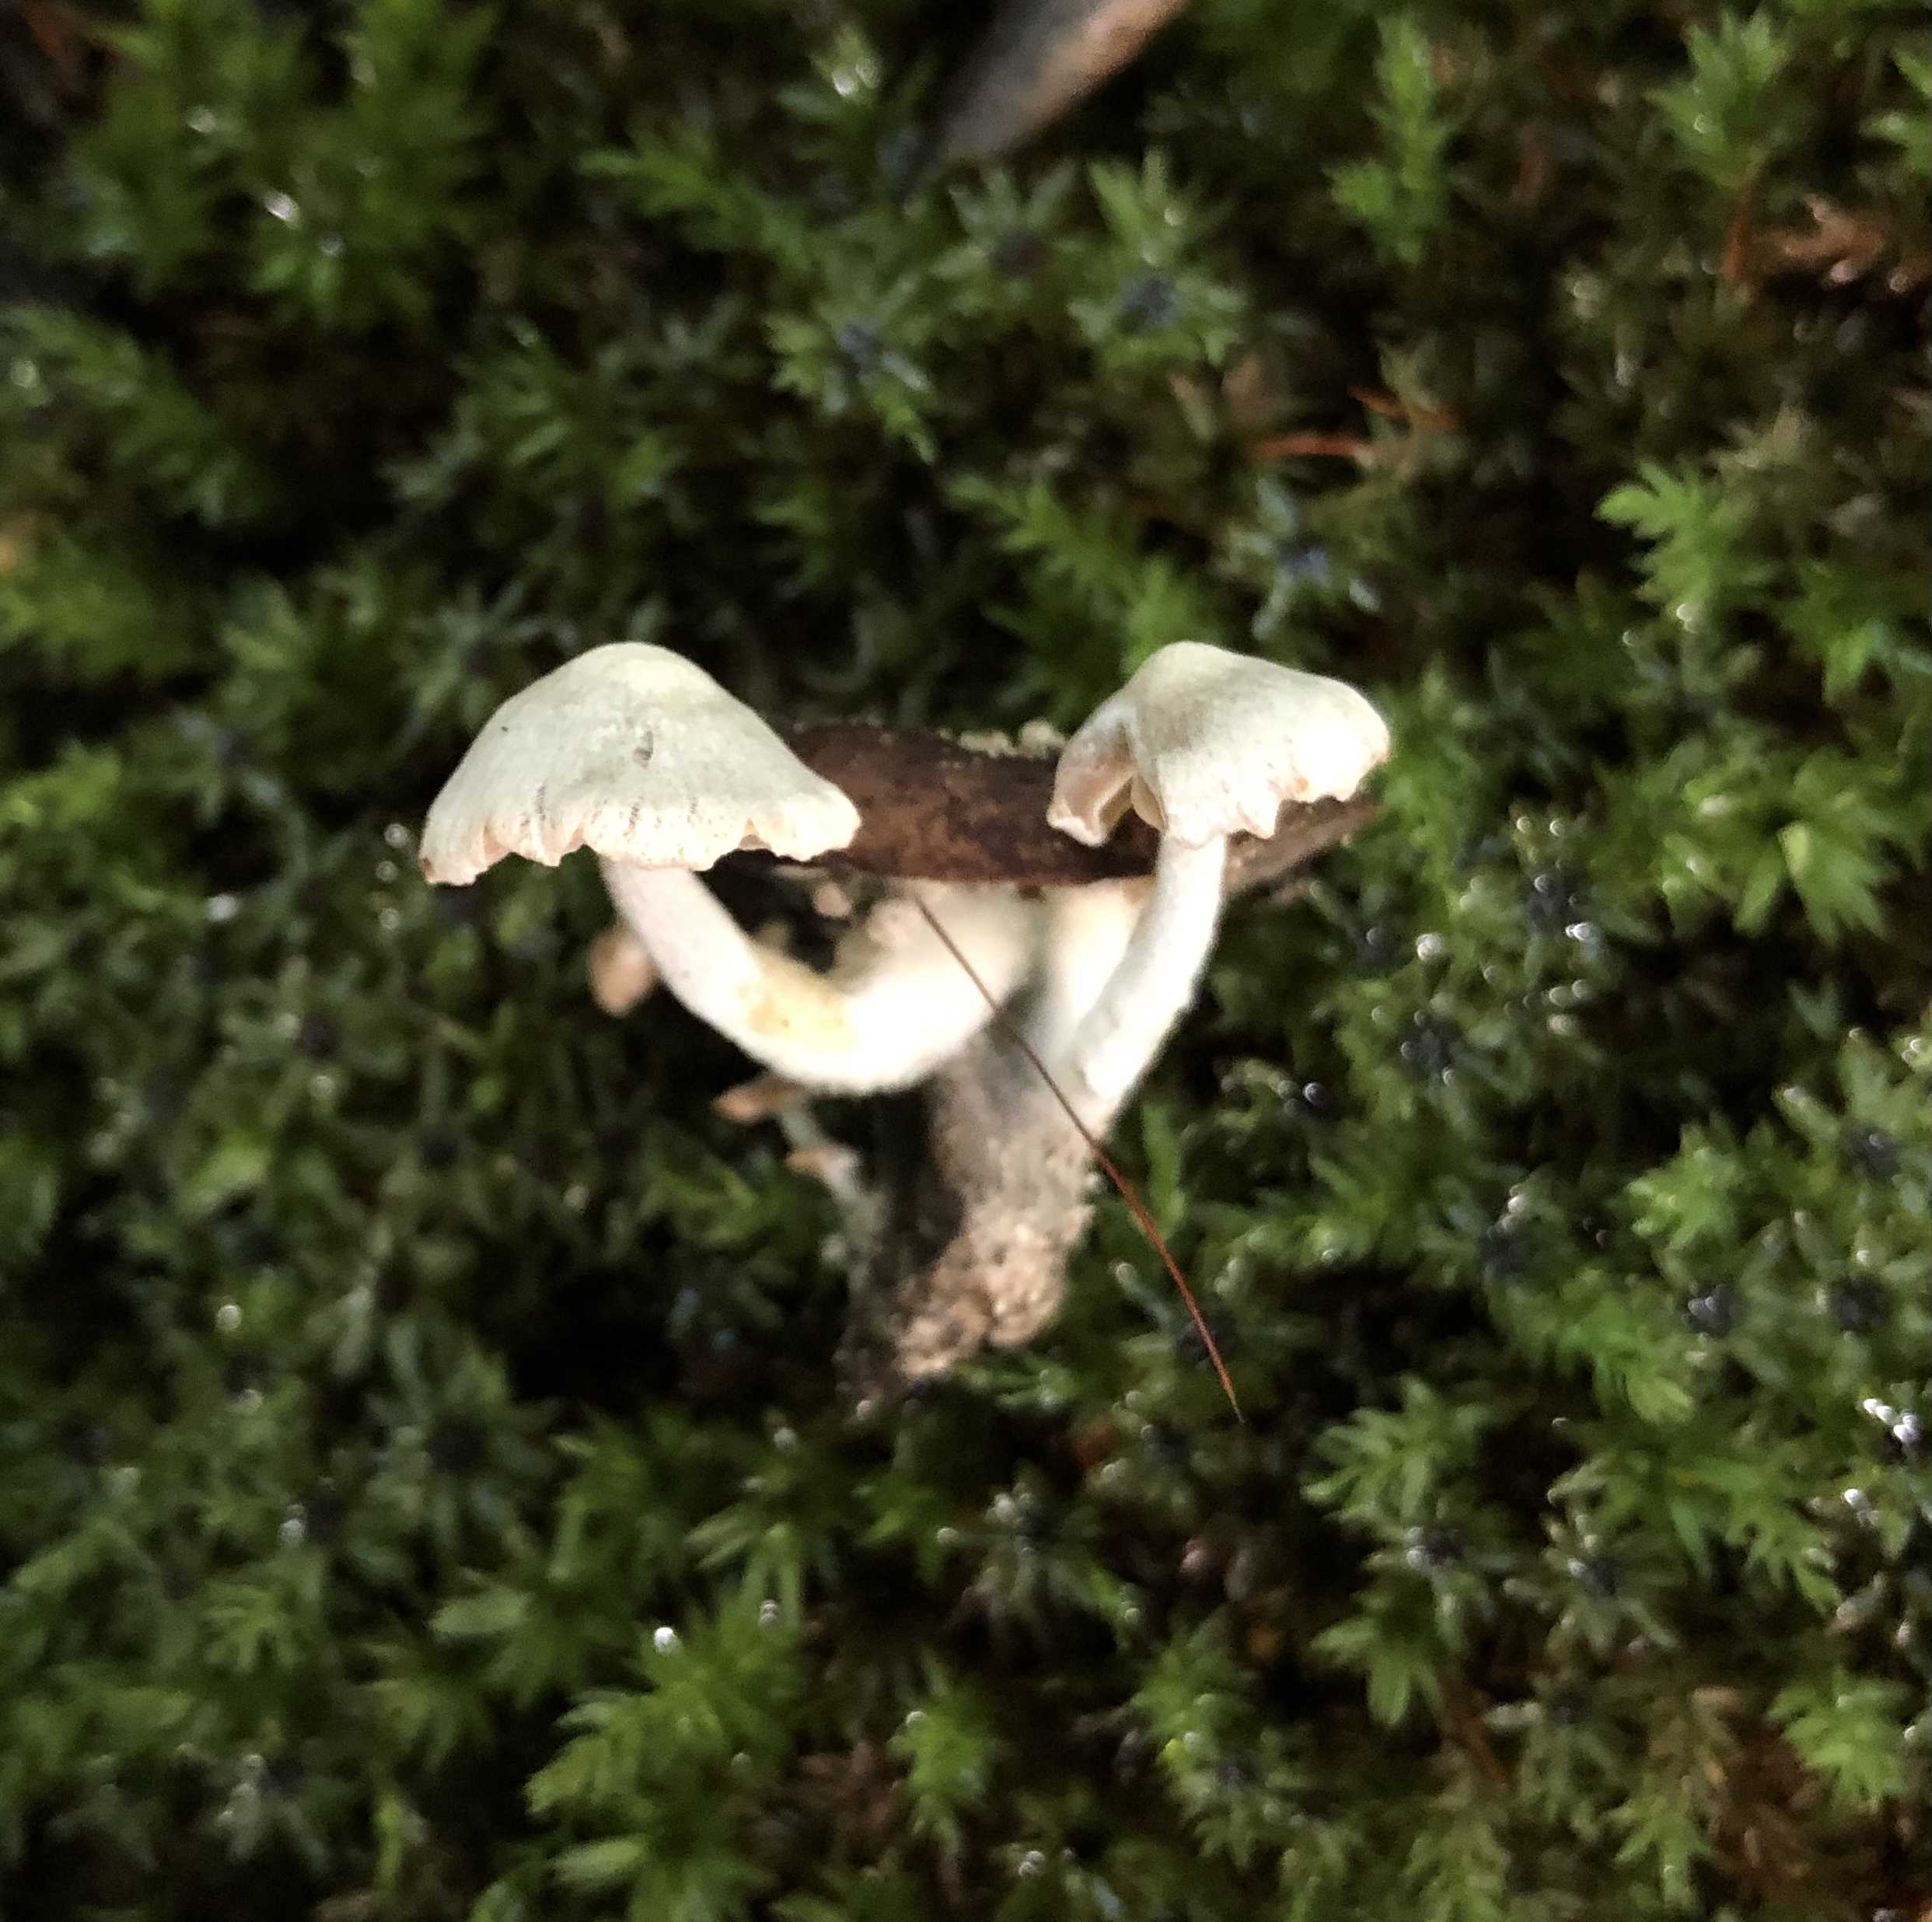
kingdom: Fungi
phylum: Basidiomycota
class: Agaricomycetes
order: Agaricales
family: Lyophyllaceae
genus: Asterophora
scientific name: Asterophora parasitica
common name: grå snyltehat
